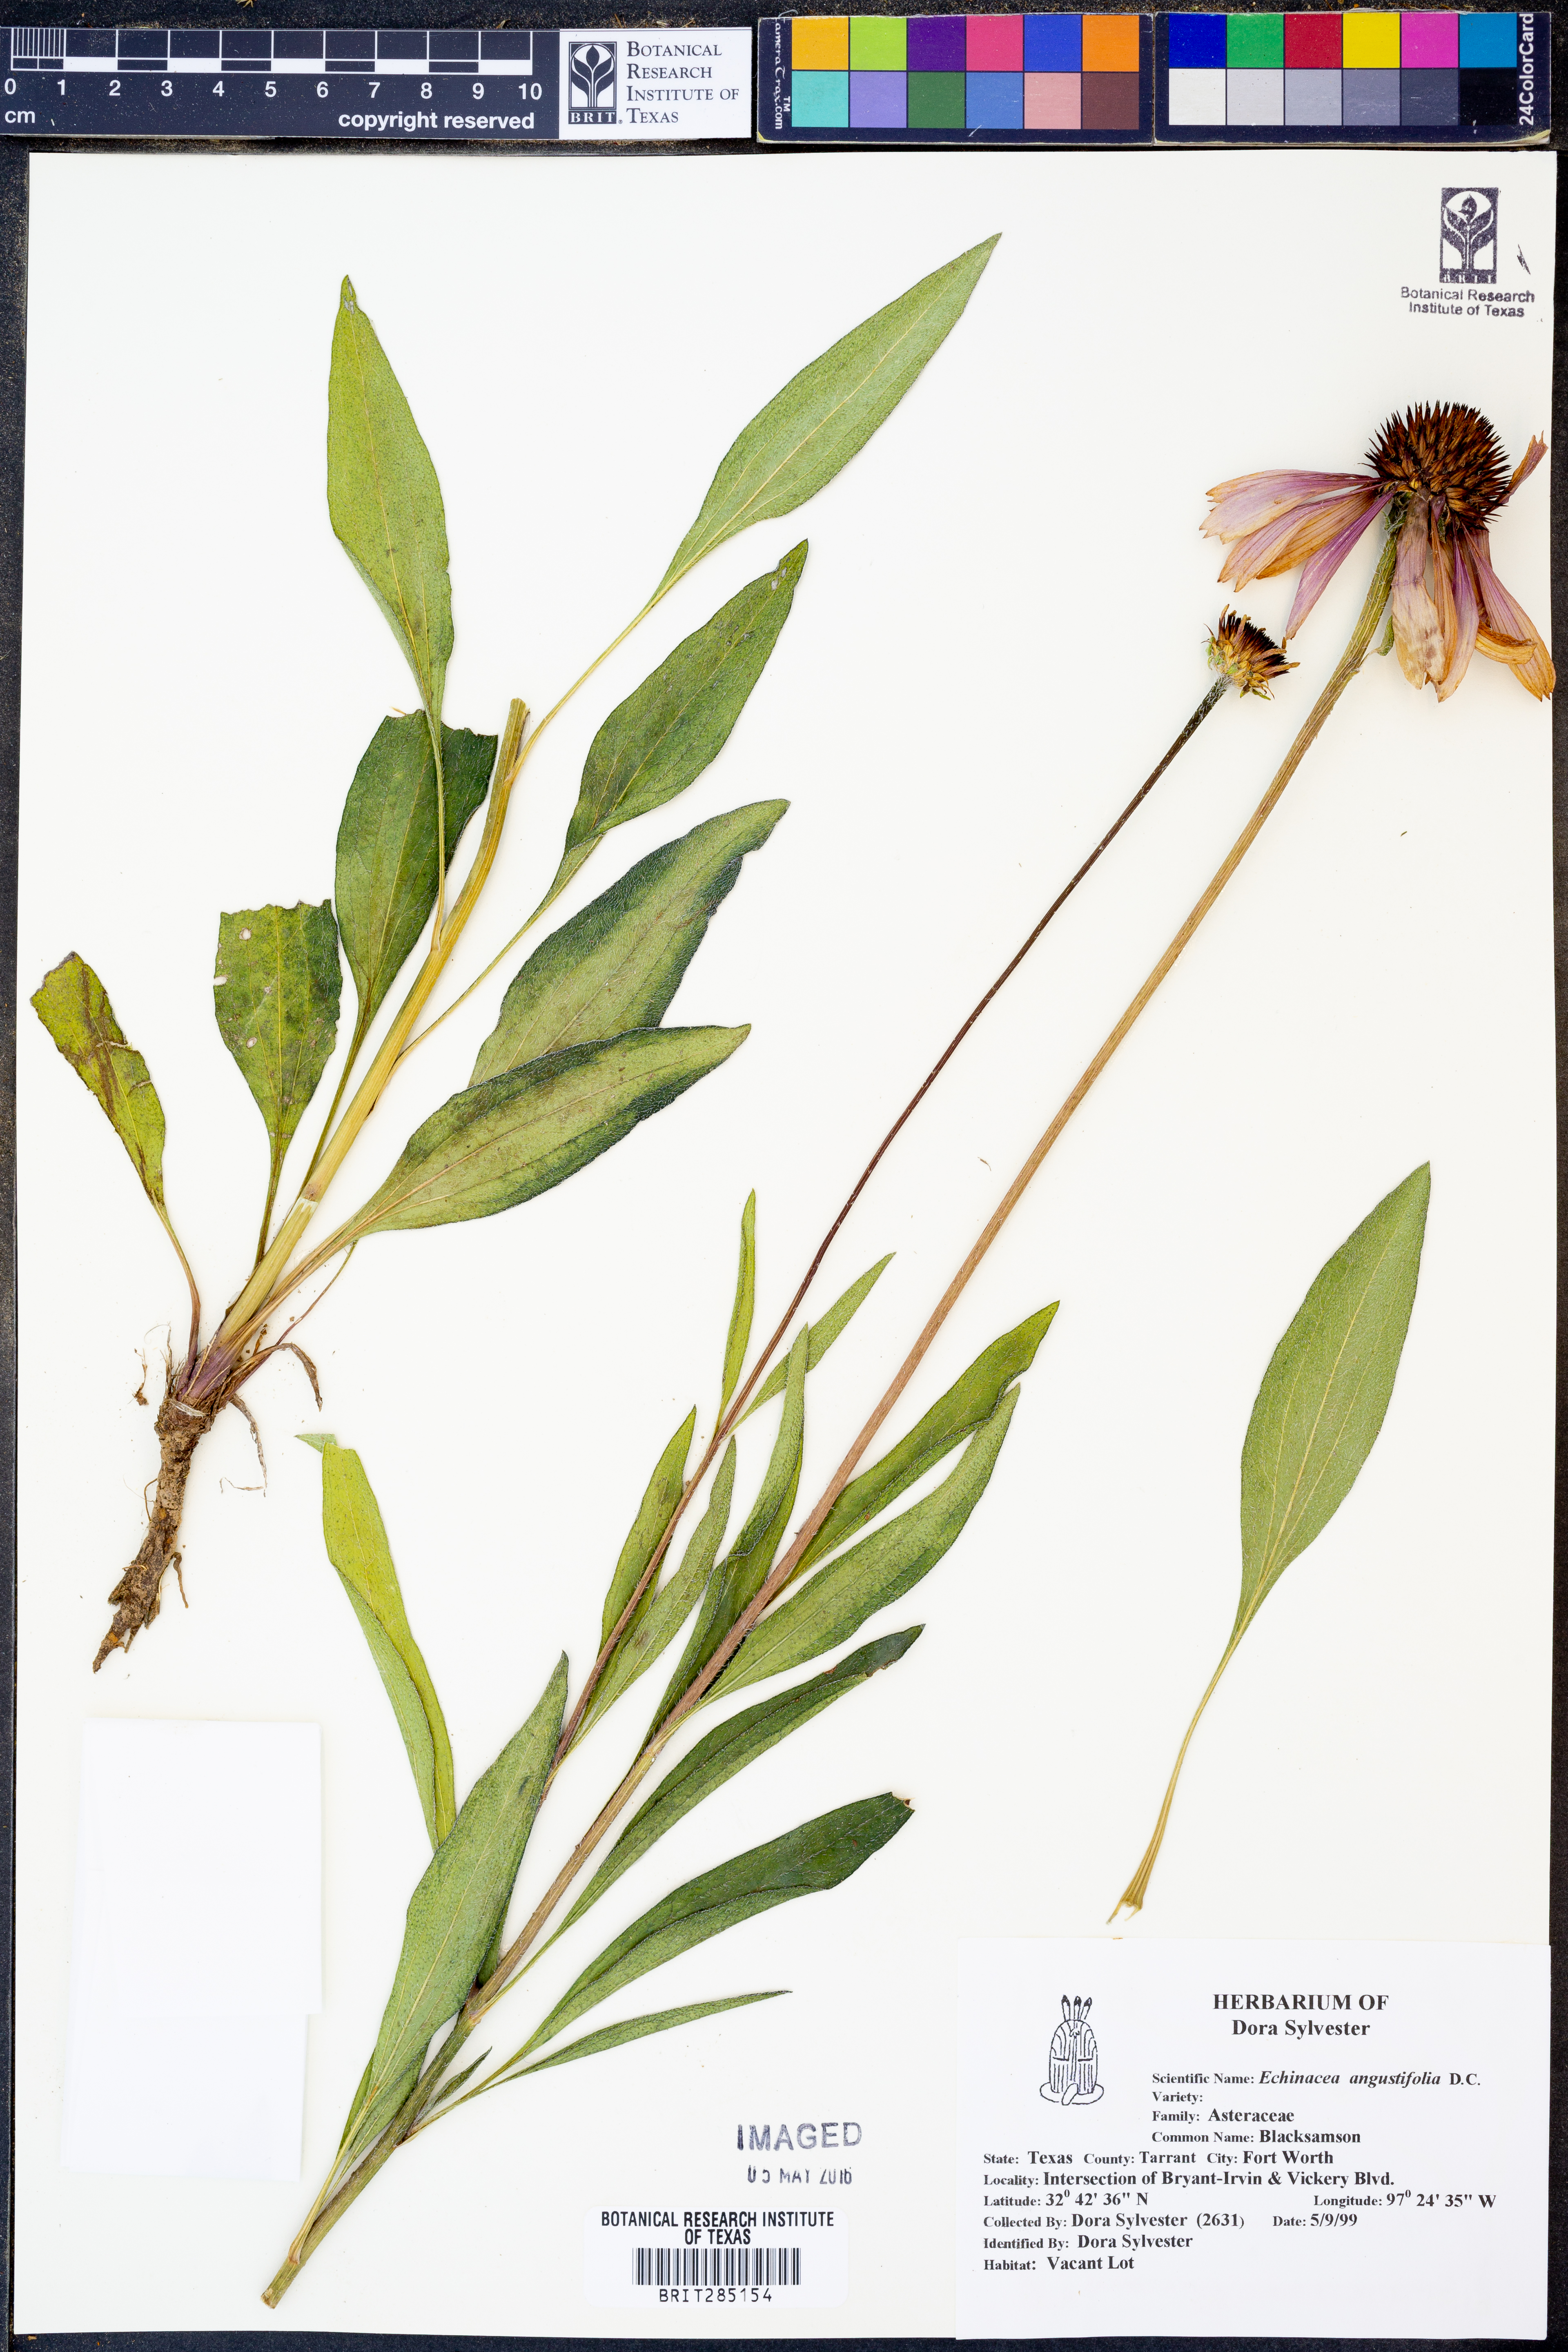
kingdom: Plantae
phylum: Tracheophyta
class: Magnoliopsida
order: Asterales
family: Asteraceae
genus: Echinacea
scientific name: Echinacea angustifolia
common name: Black-sampson echinacea
